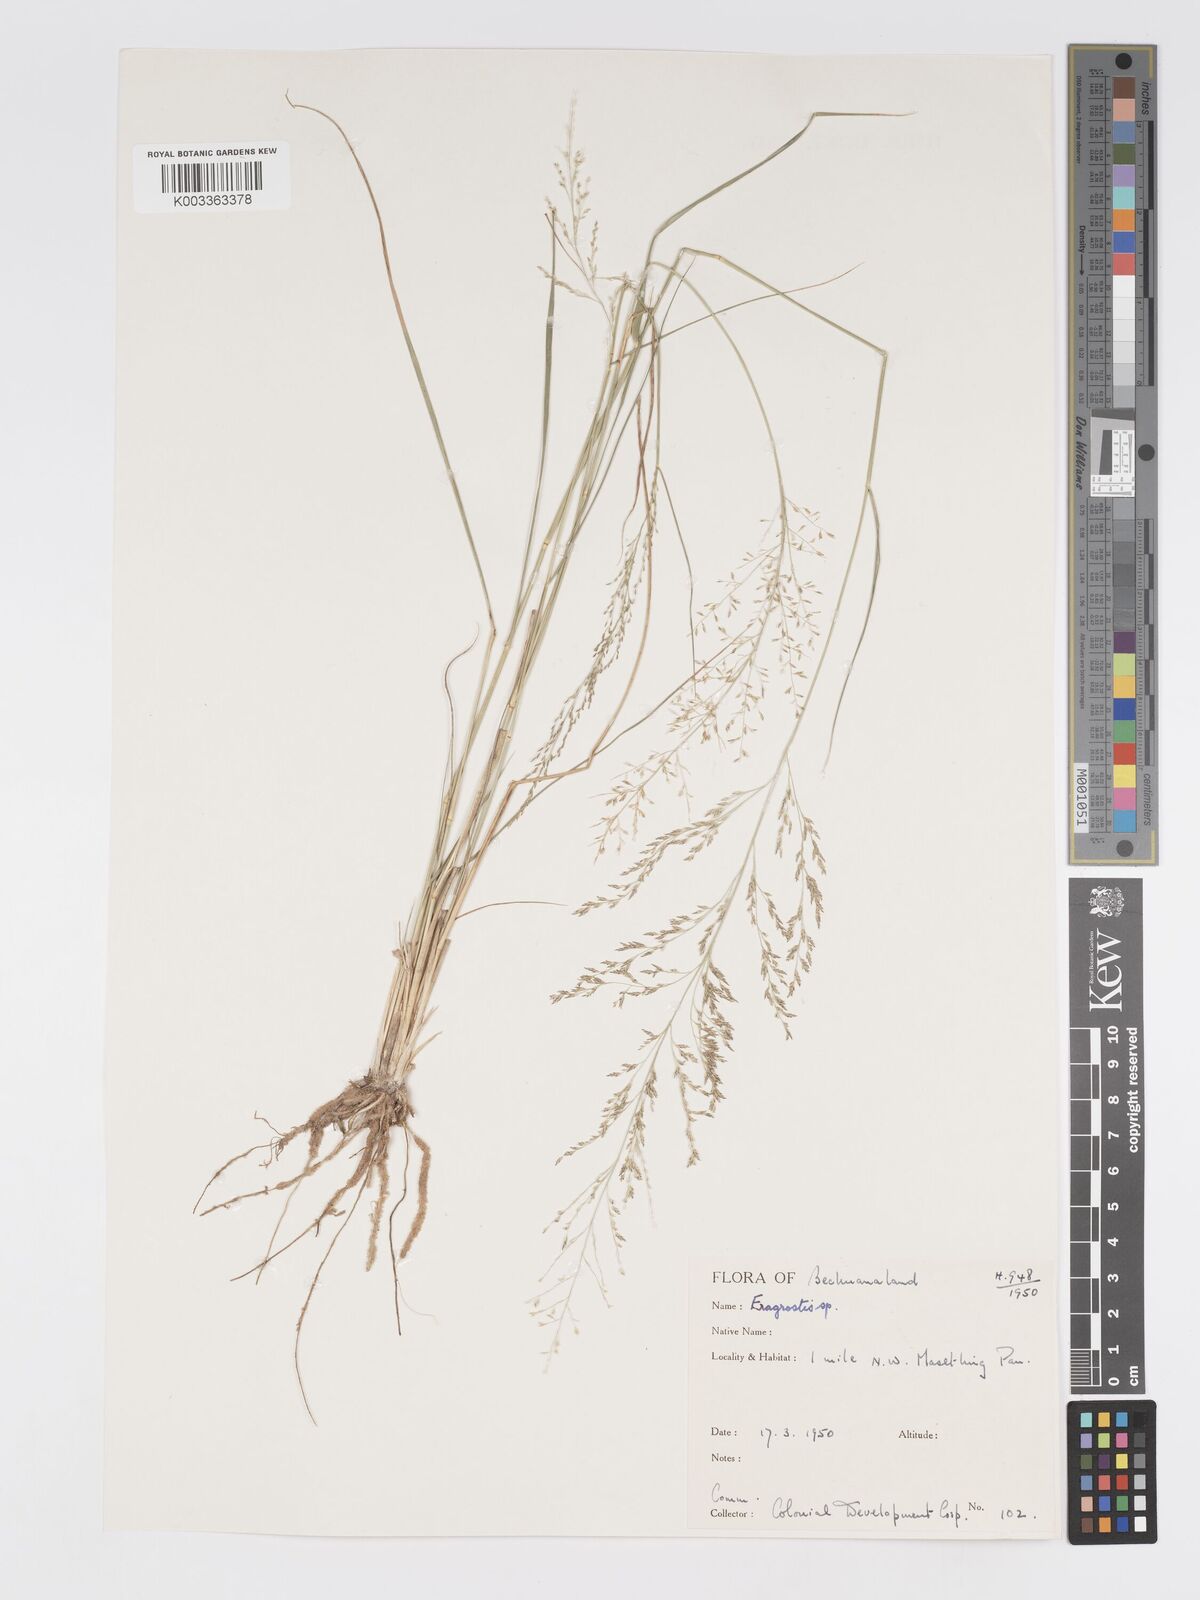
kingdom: Plantae
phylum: Tracheophyta
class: Liliopsida
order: Poales
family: Poaceae
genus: Eragrostis
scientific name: Eragrostis lehmanniana
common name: Lehmann lovegrass
